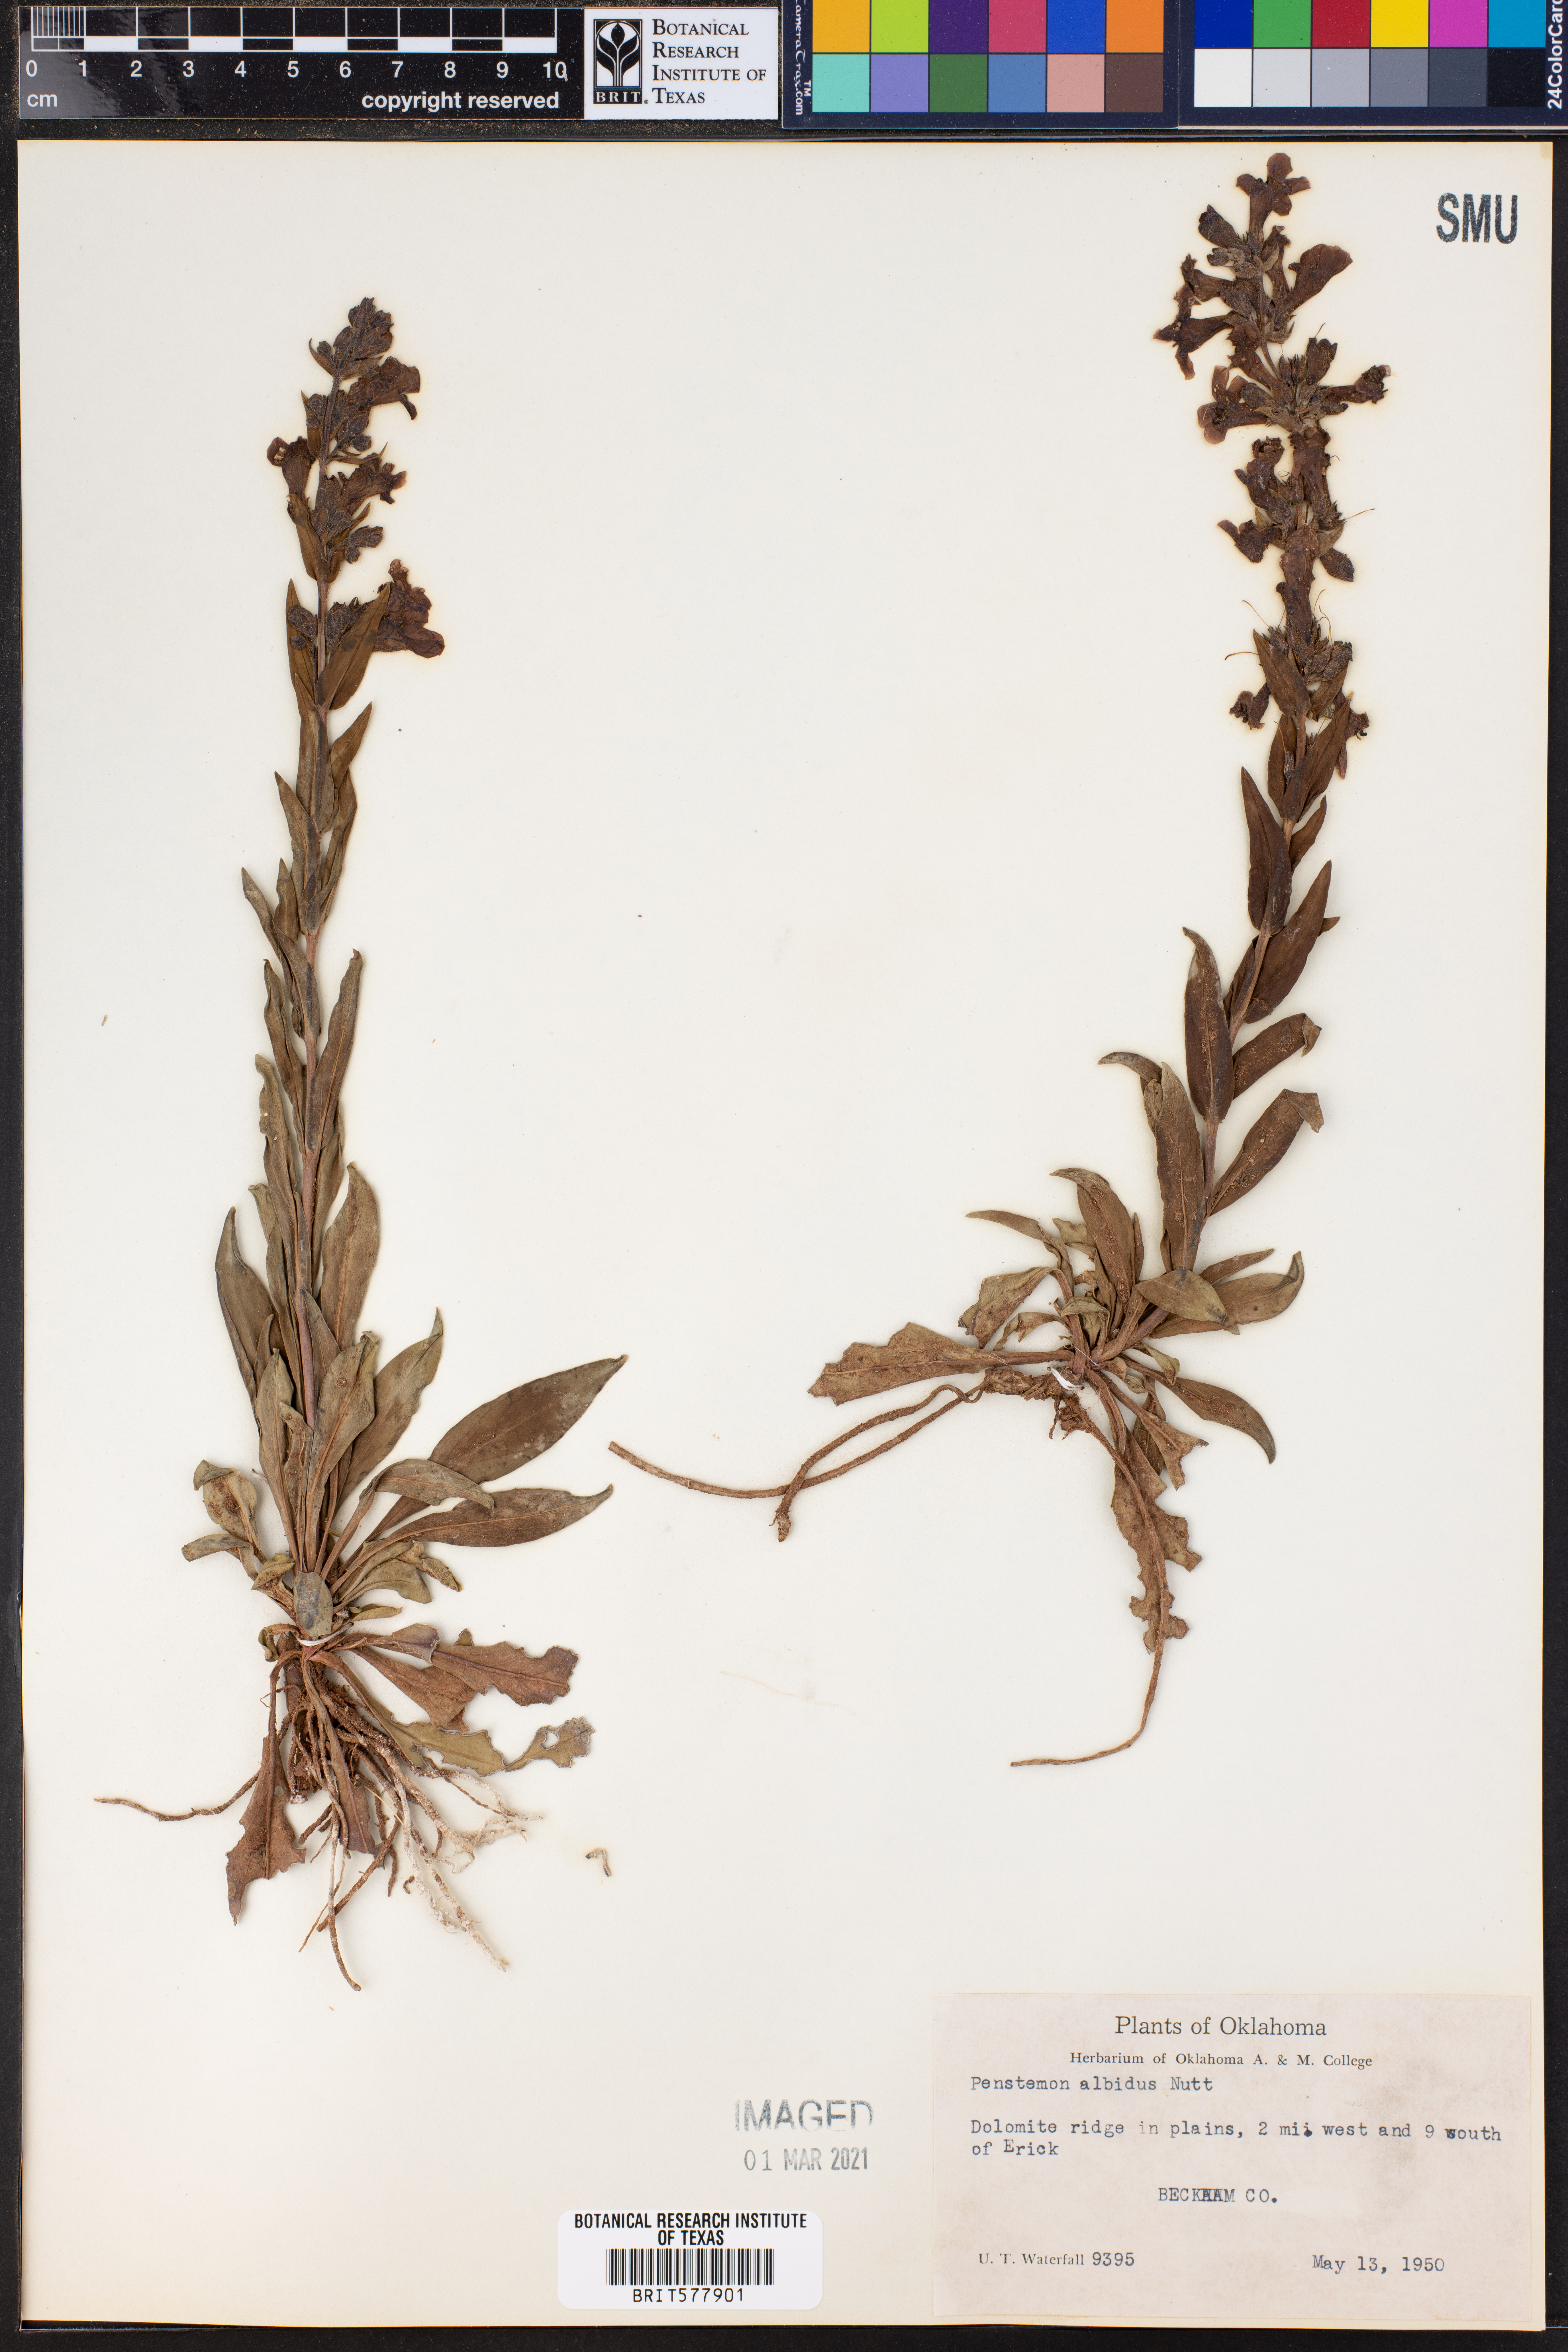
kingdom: Plantae
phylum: Tracheophyta
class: Magnoliopsida
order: Lamiales
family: Plantaginaceae
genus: Penstemon
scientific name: Penstemon albidus
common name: White beardtongue
